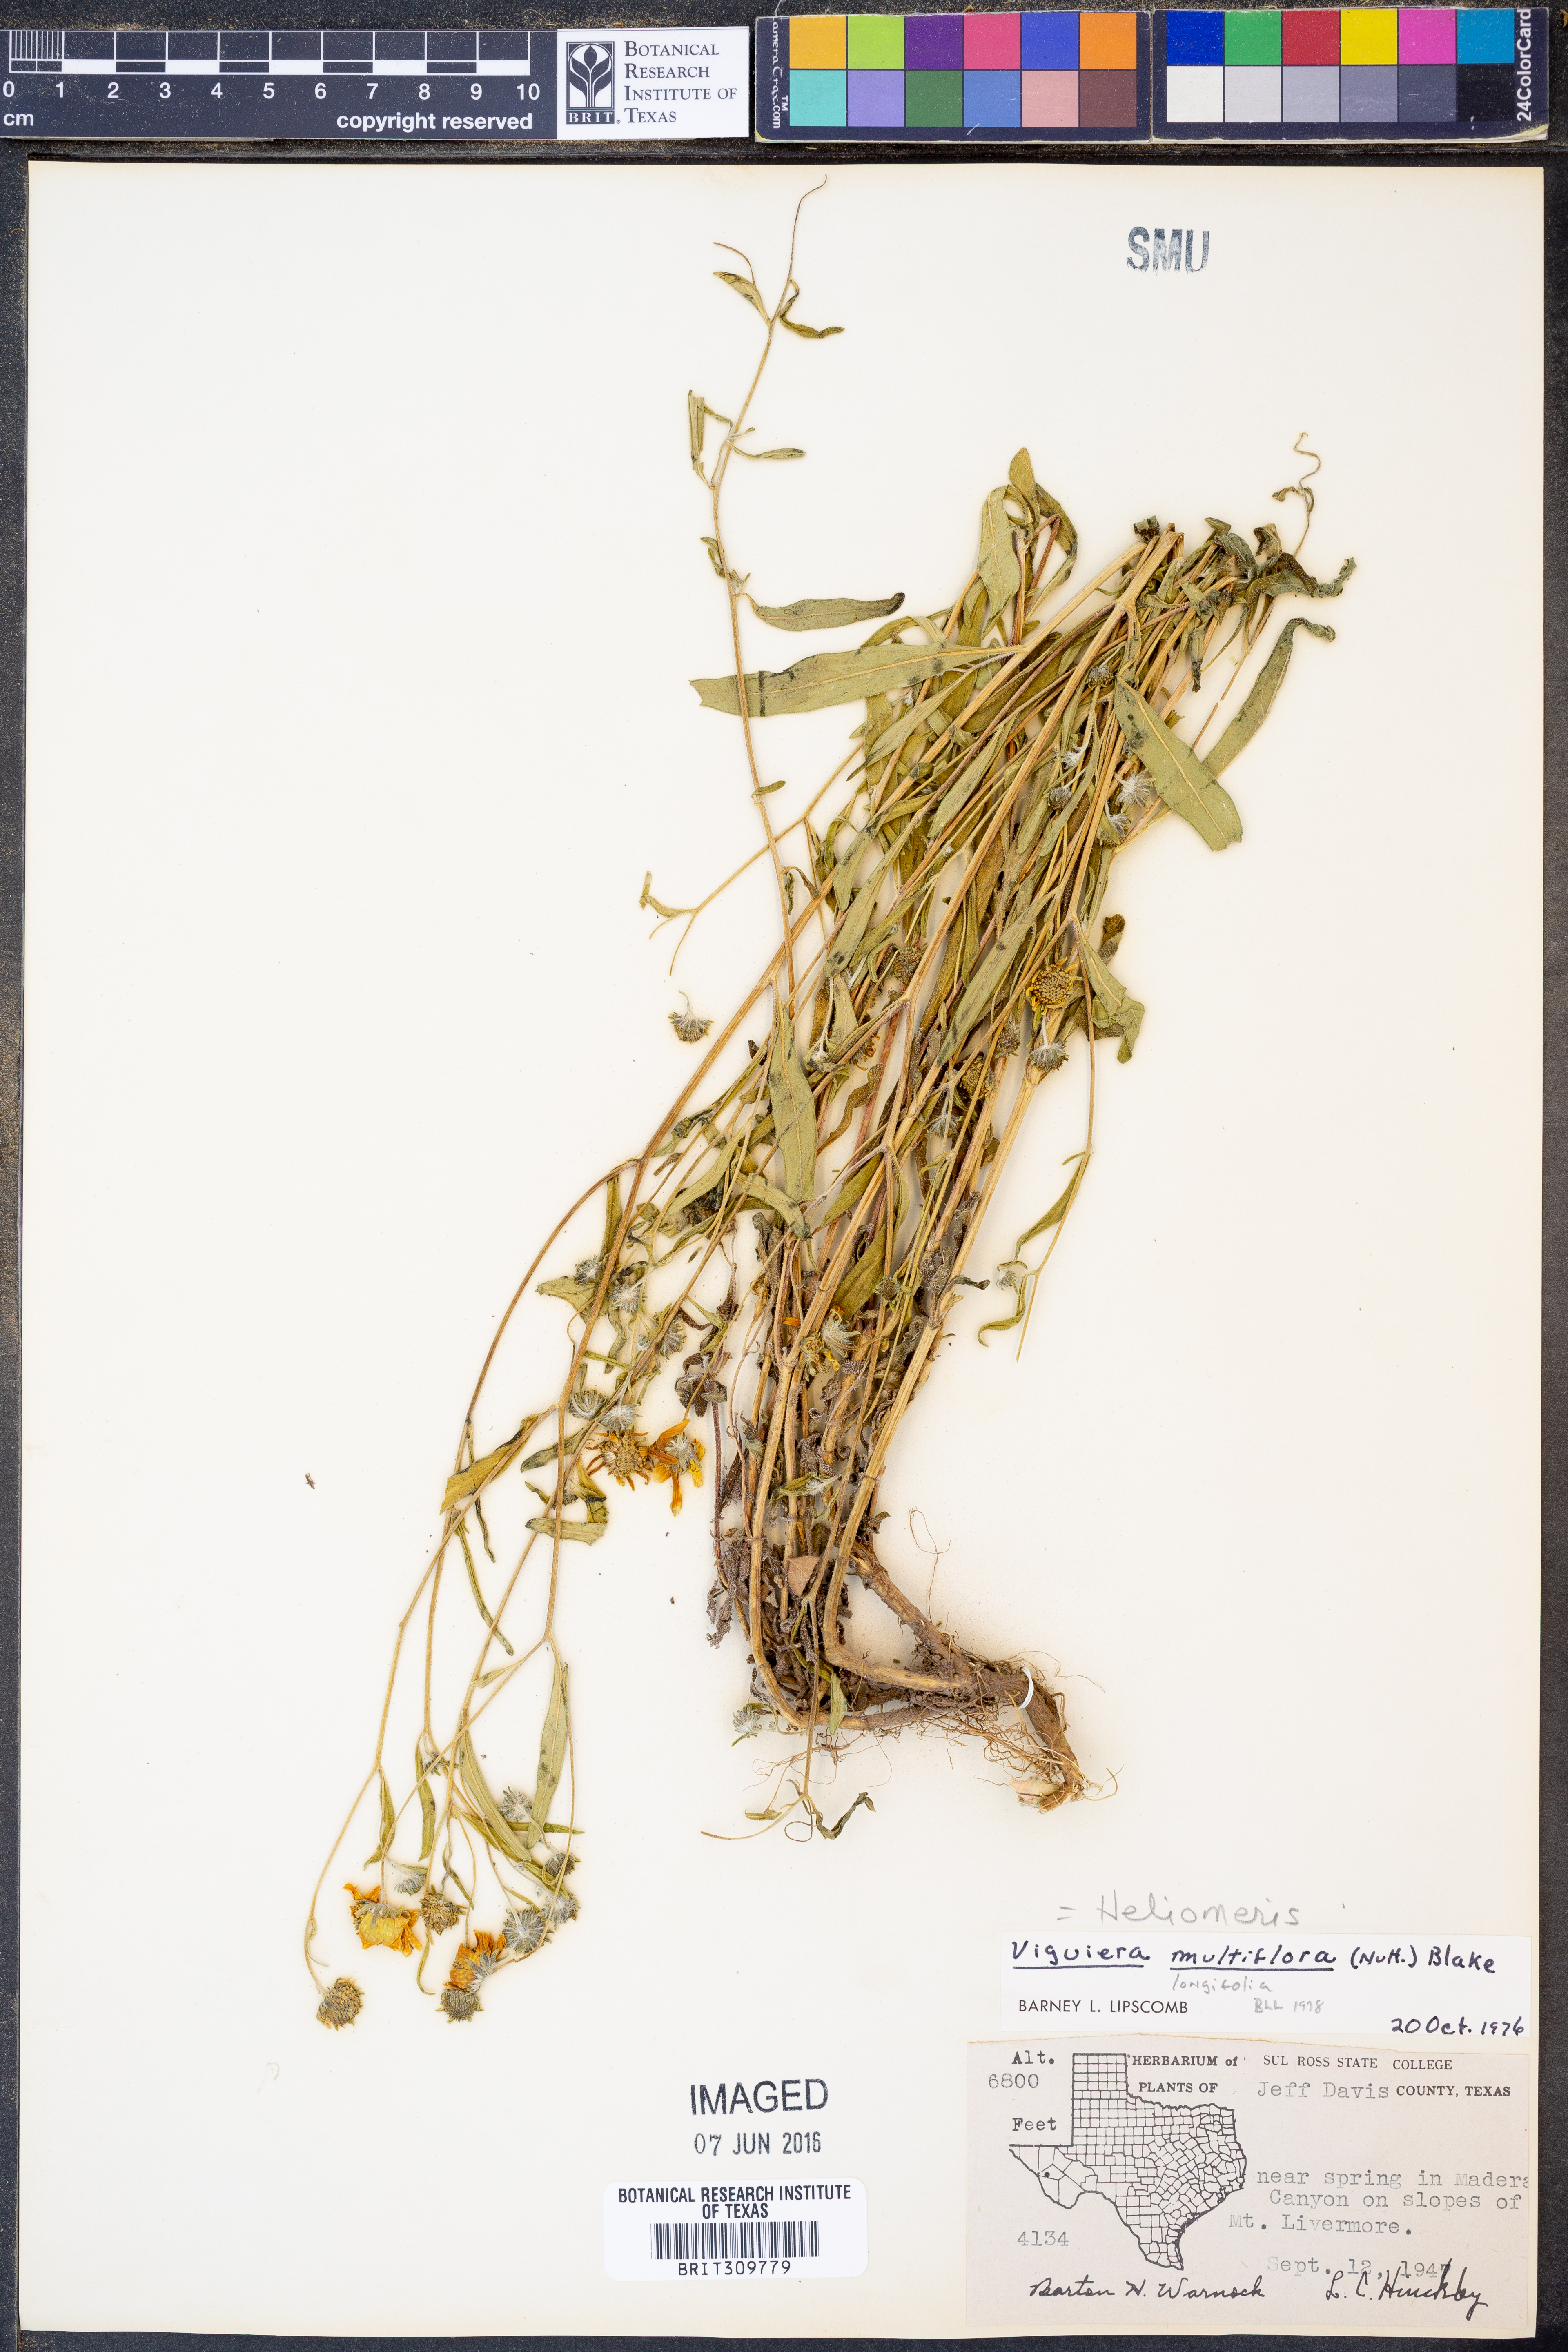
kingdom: Plantae
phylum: Tracheophyta
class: Magnoliopsida
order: Asterales
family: Asteraceae
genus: Heliomeris
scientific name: Heliomeris multiflora
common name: Showy goldeneye
